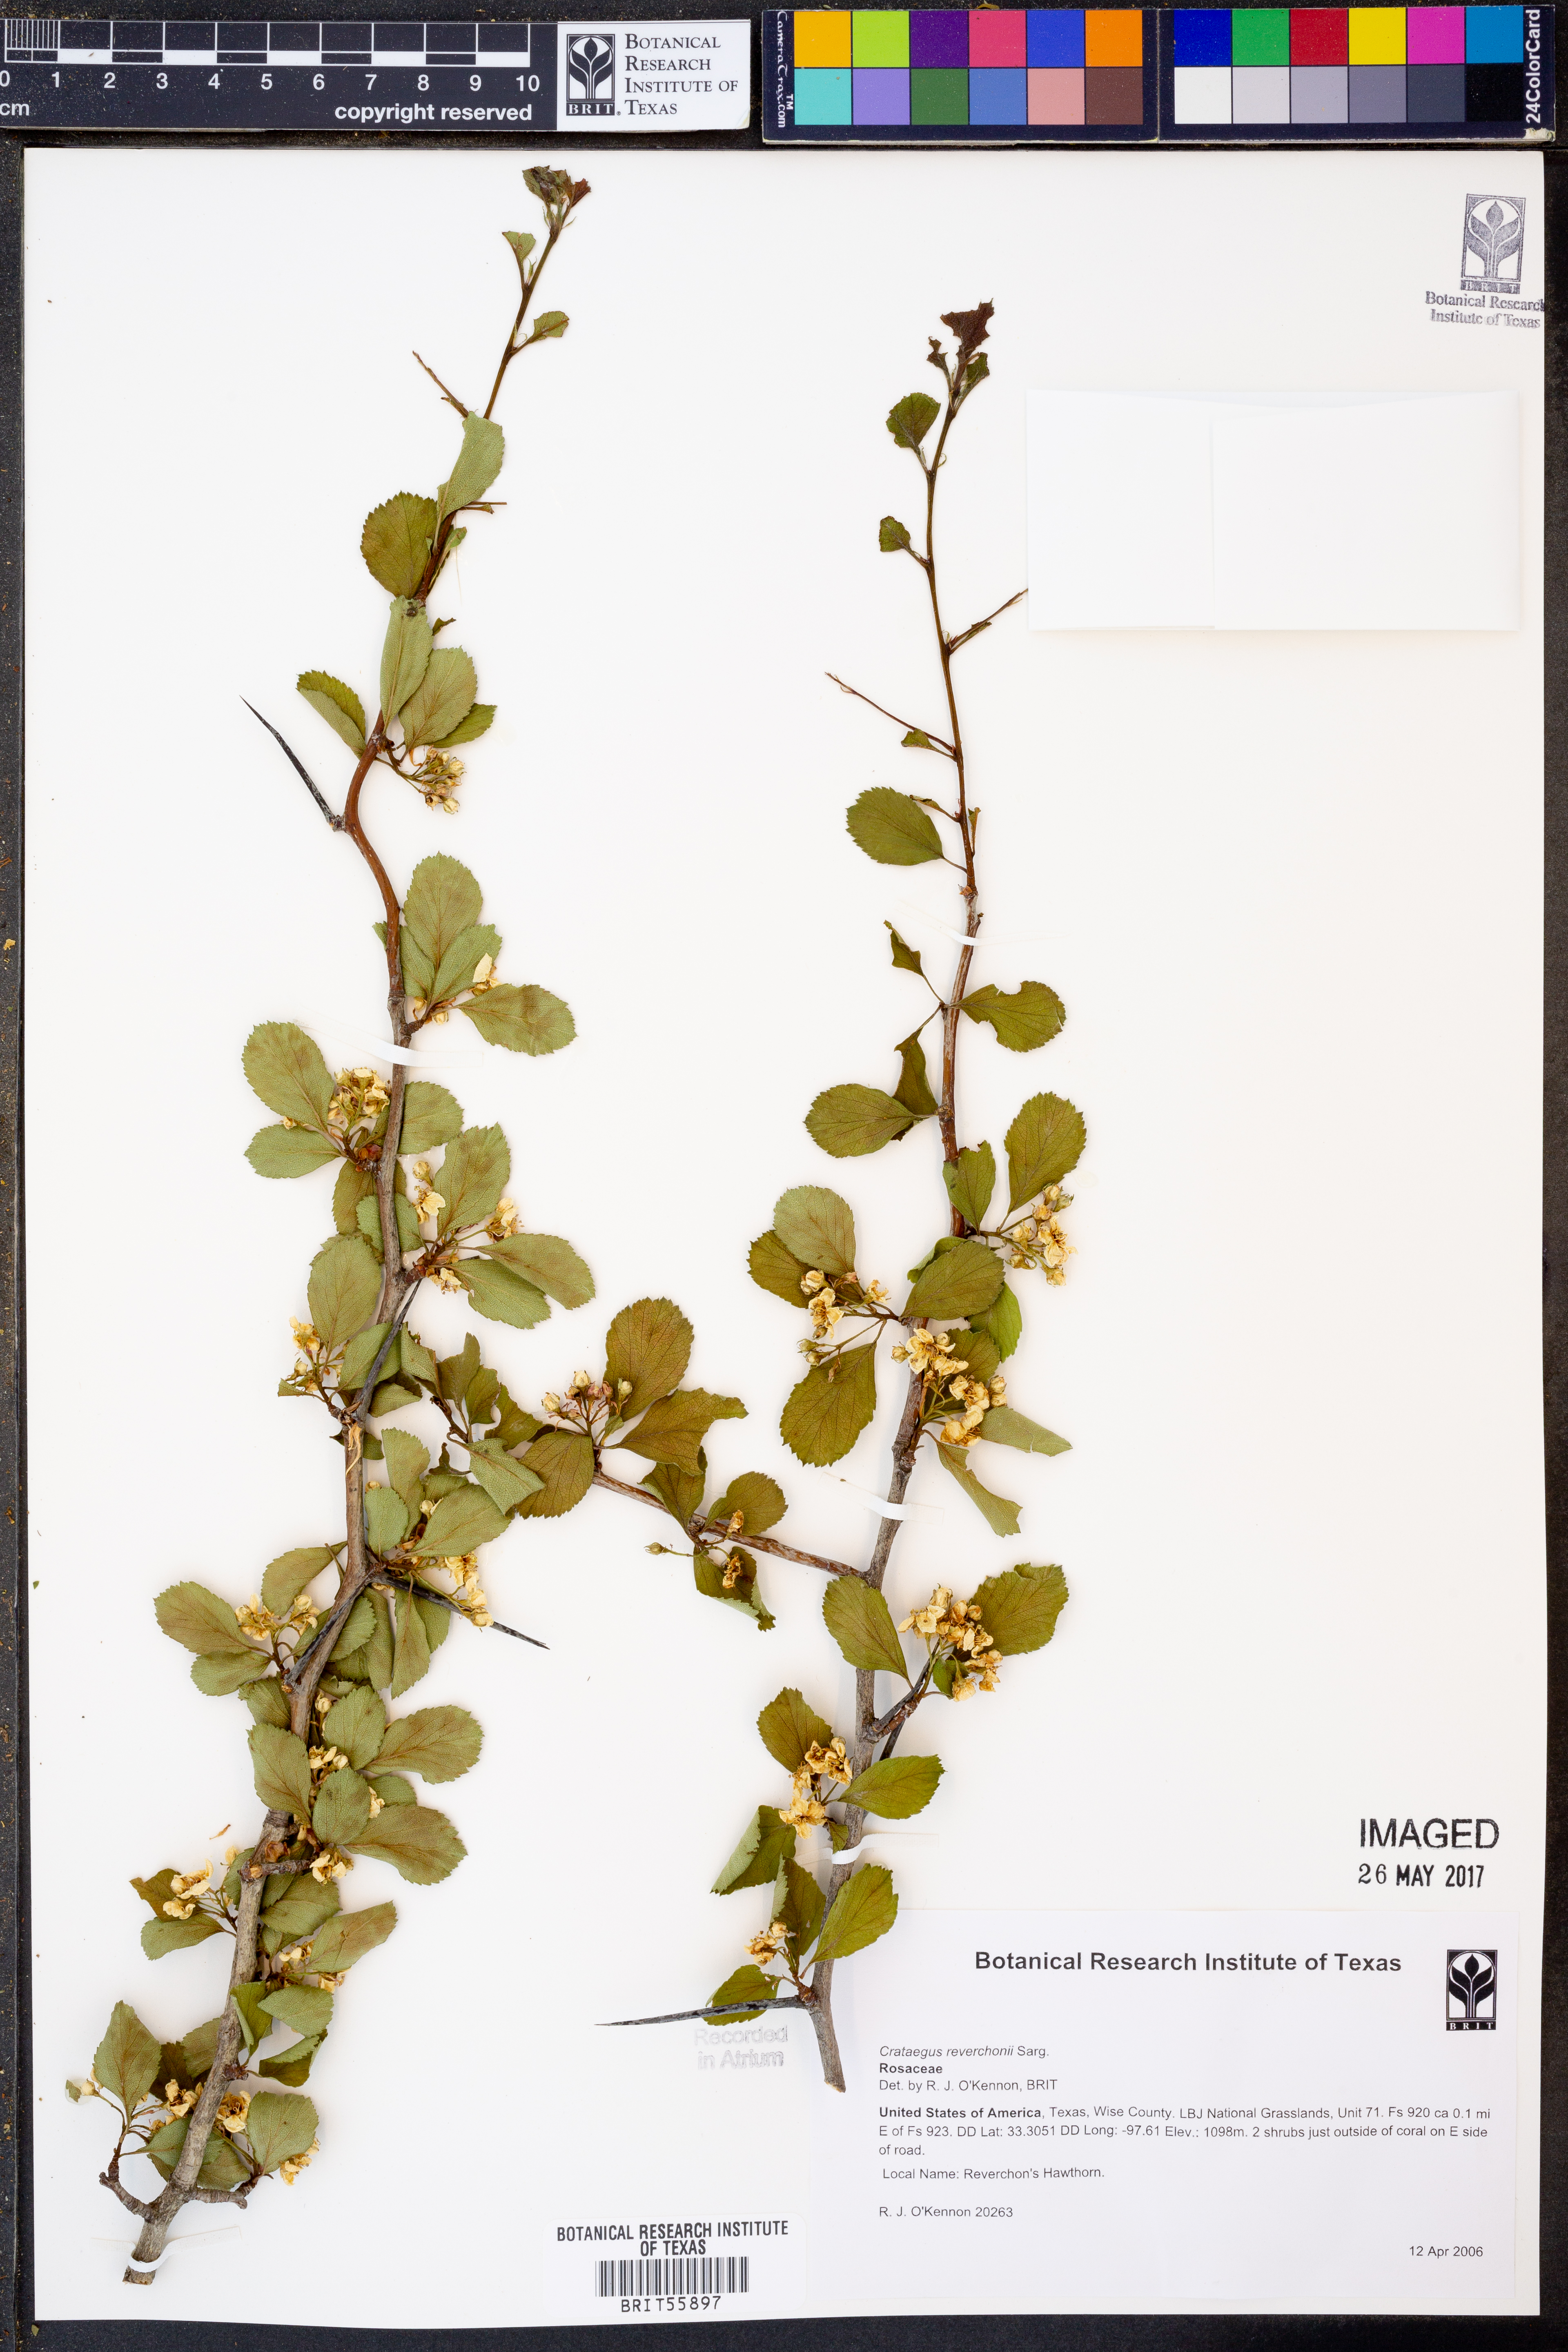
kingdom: Plantae
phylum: Tracheophyta
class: Magnoliopsida
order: Rosales
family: Rosaceae
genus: Crataegus
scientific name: Crataegus reverchonii
